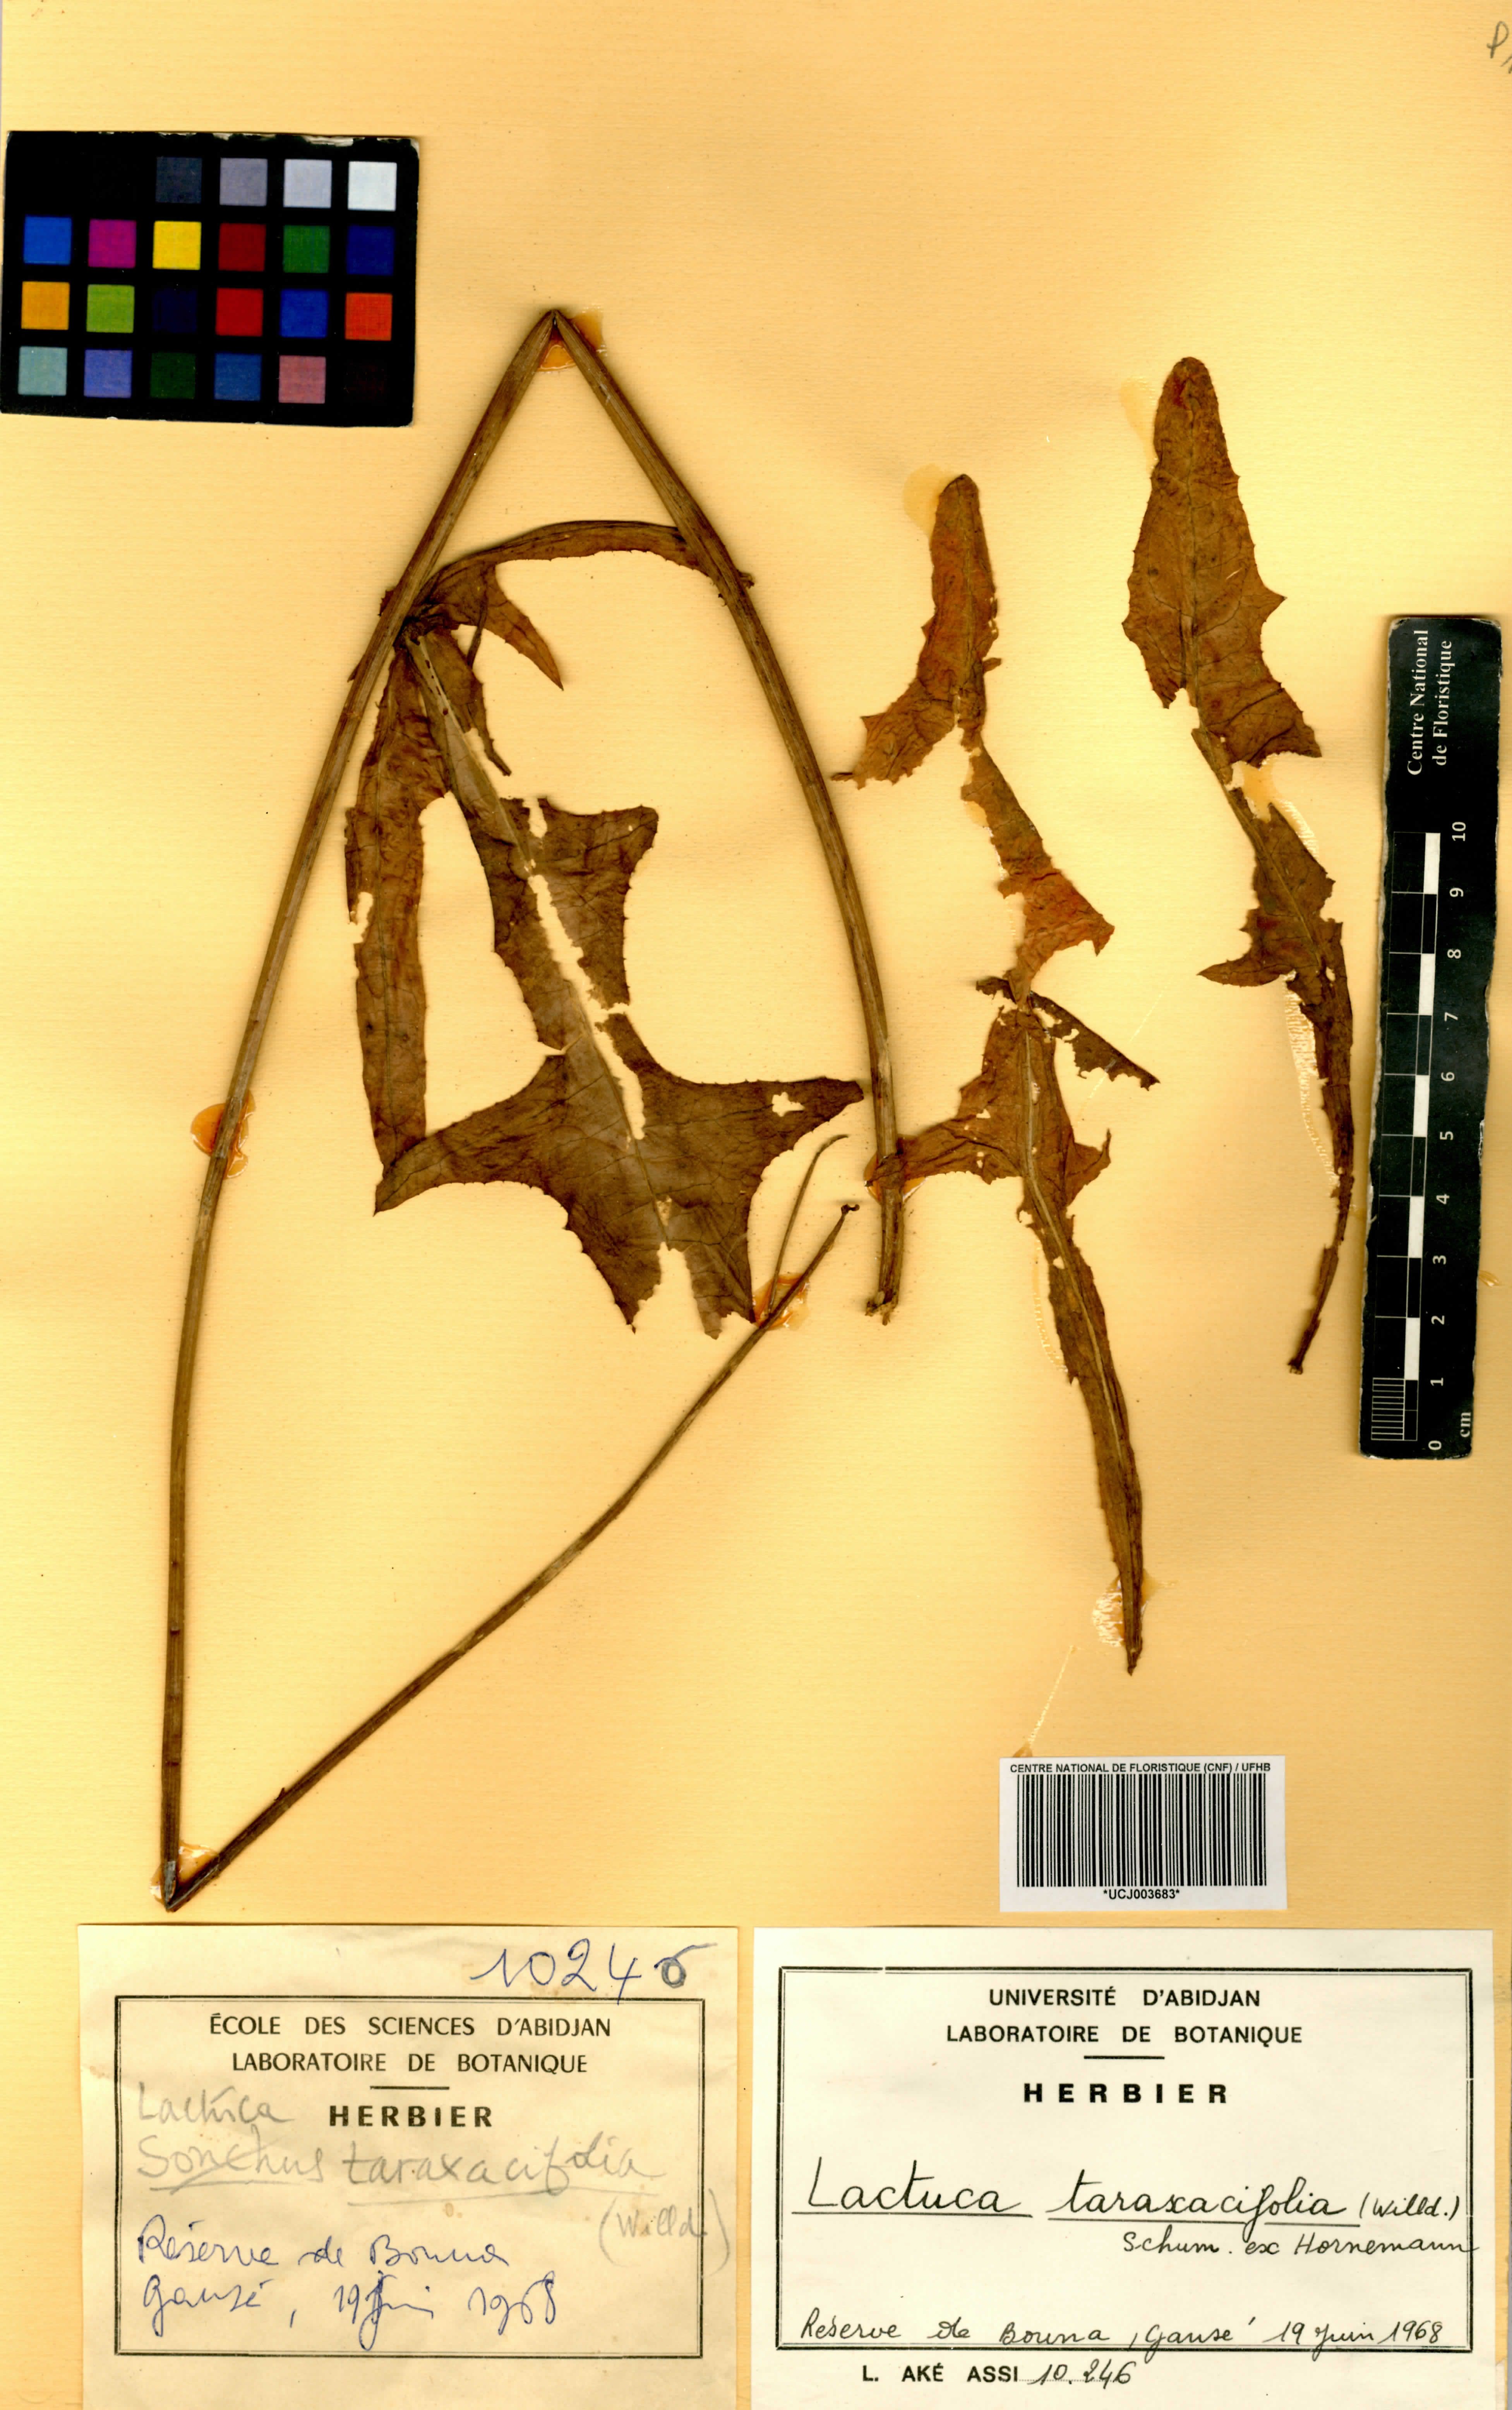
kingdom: Plantae
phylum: Tracheophyta
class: Magnoliopsida
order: Asterales
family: Asteraceae
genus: Launaea
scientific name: Launaea taraxacifolia
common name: African-lettuce
